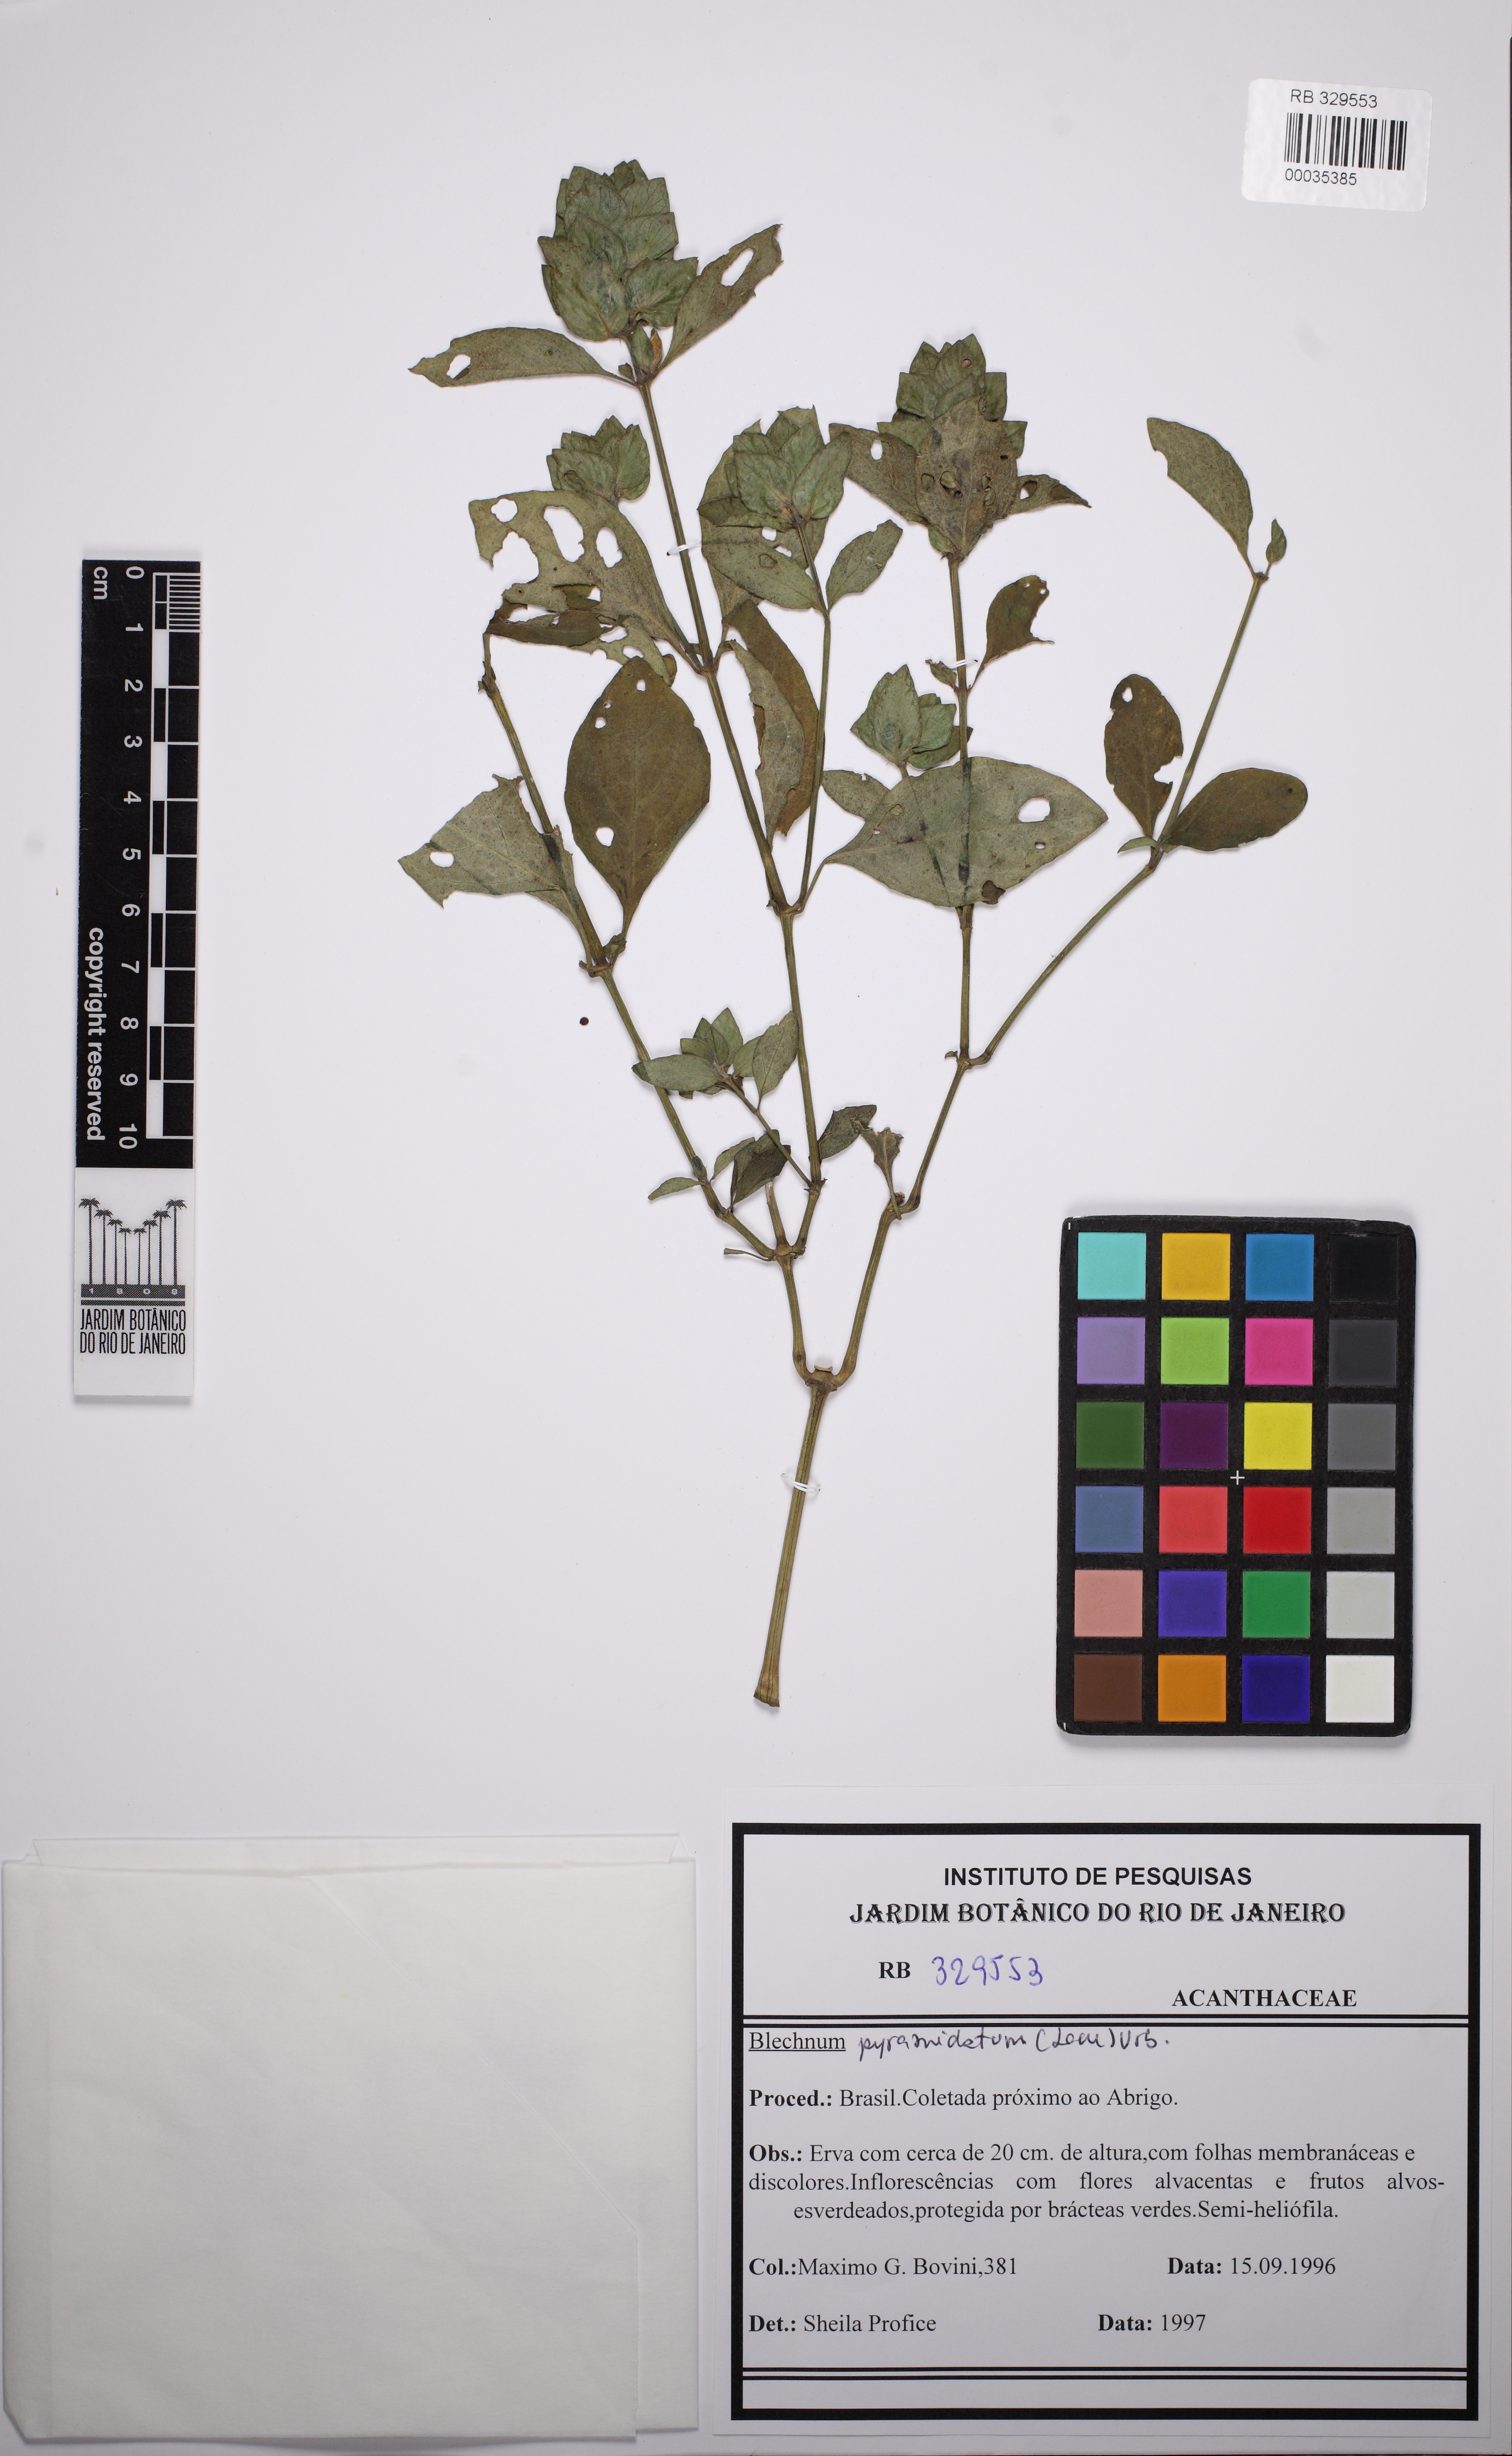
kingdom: Plantae
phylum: Tracheophyta
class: Magnoliopsida
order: Lamiales
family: Acanthaceae
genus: Ruellia
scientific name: Ruellia blechum
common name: Browne's blechum
